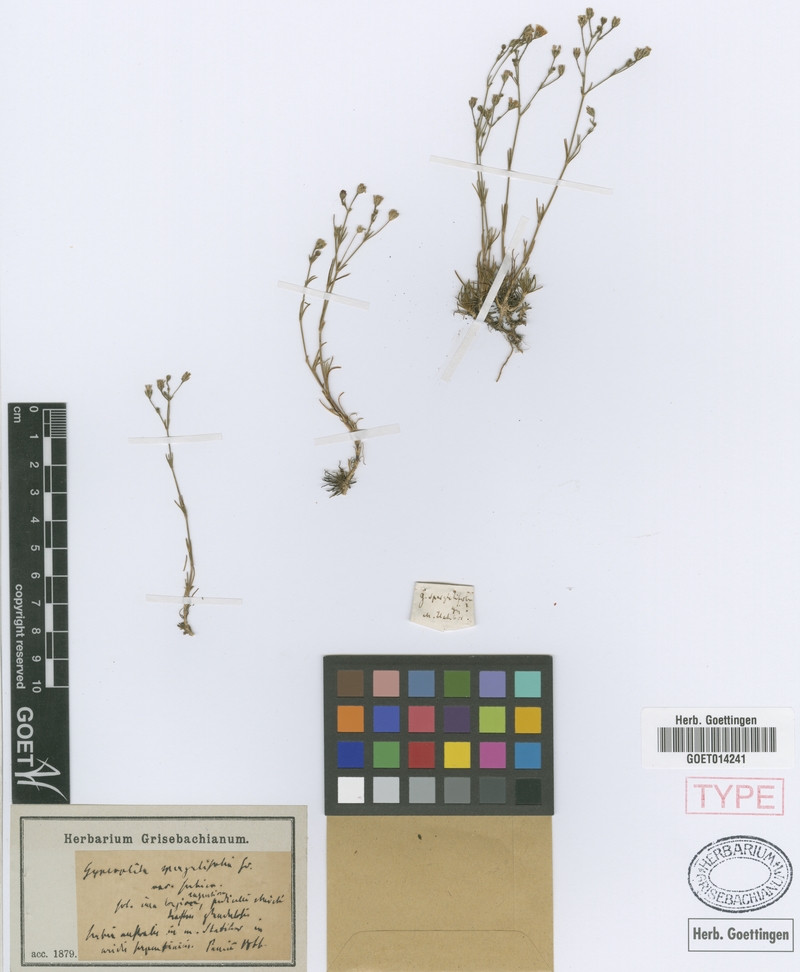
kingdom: Plantae
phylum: Tracheophyta
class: Magnoliopsida
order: Caryophyllales
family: Caryophyllaceae
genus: Balkana
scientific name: Balkana spergulifolia
